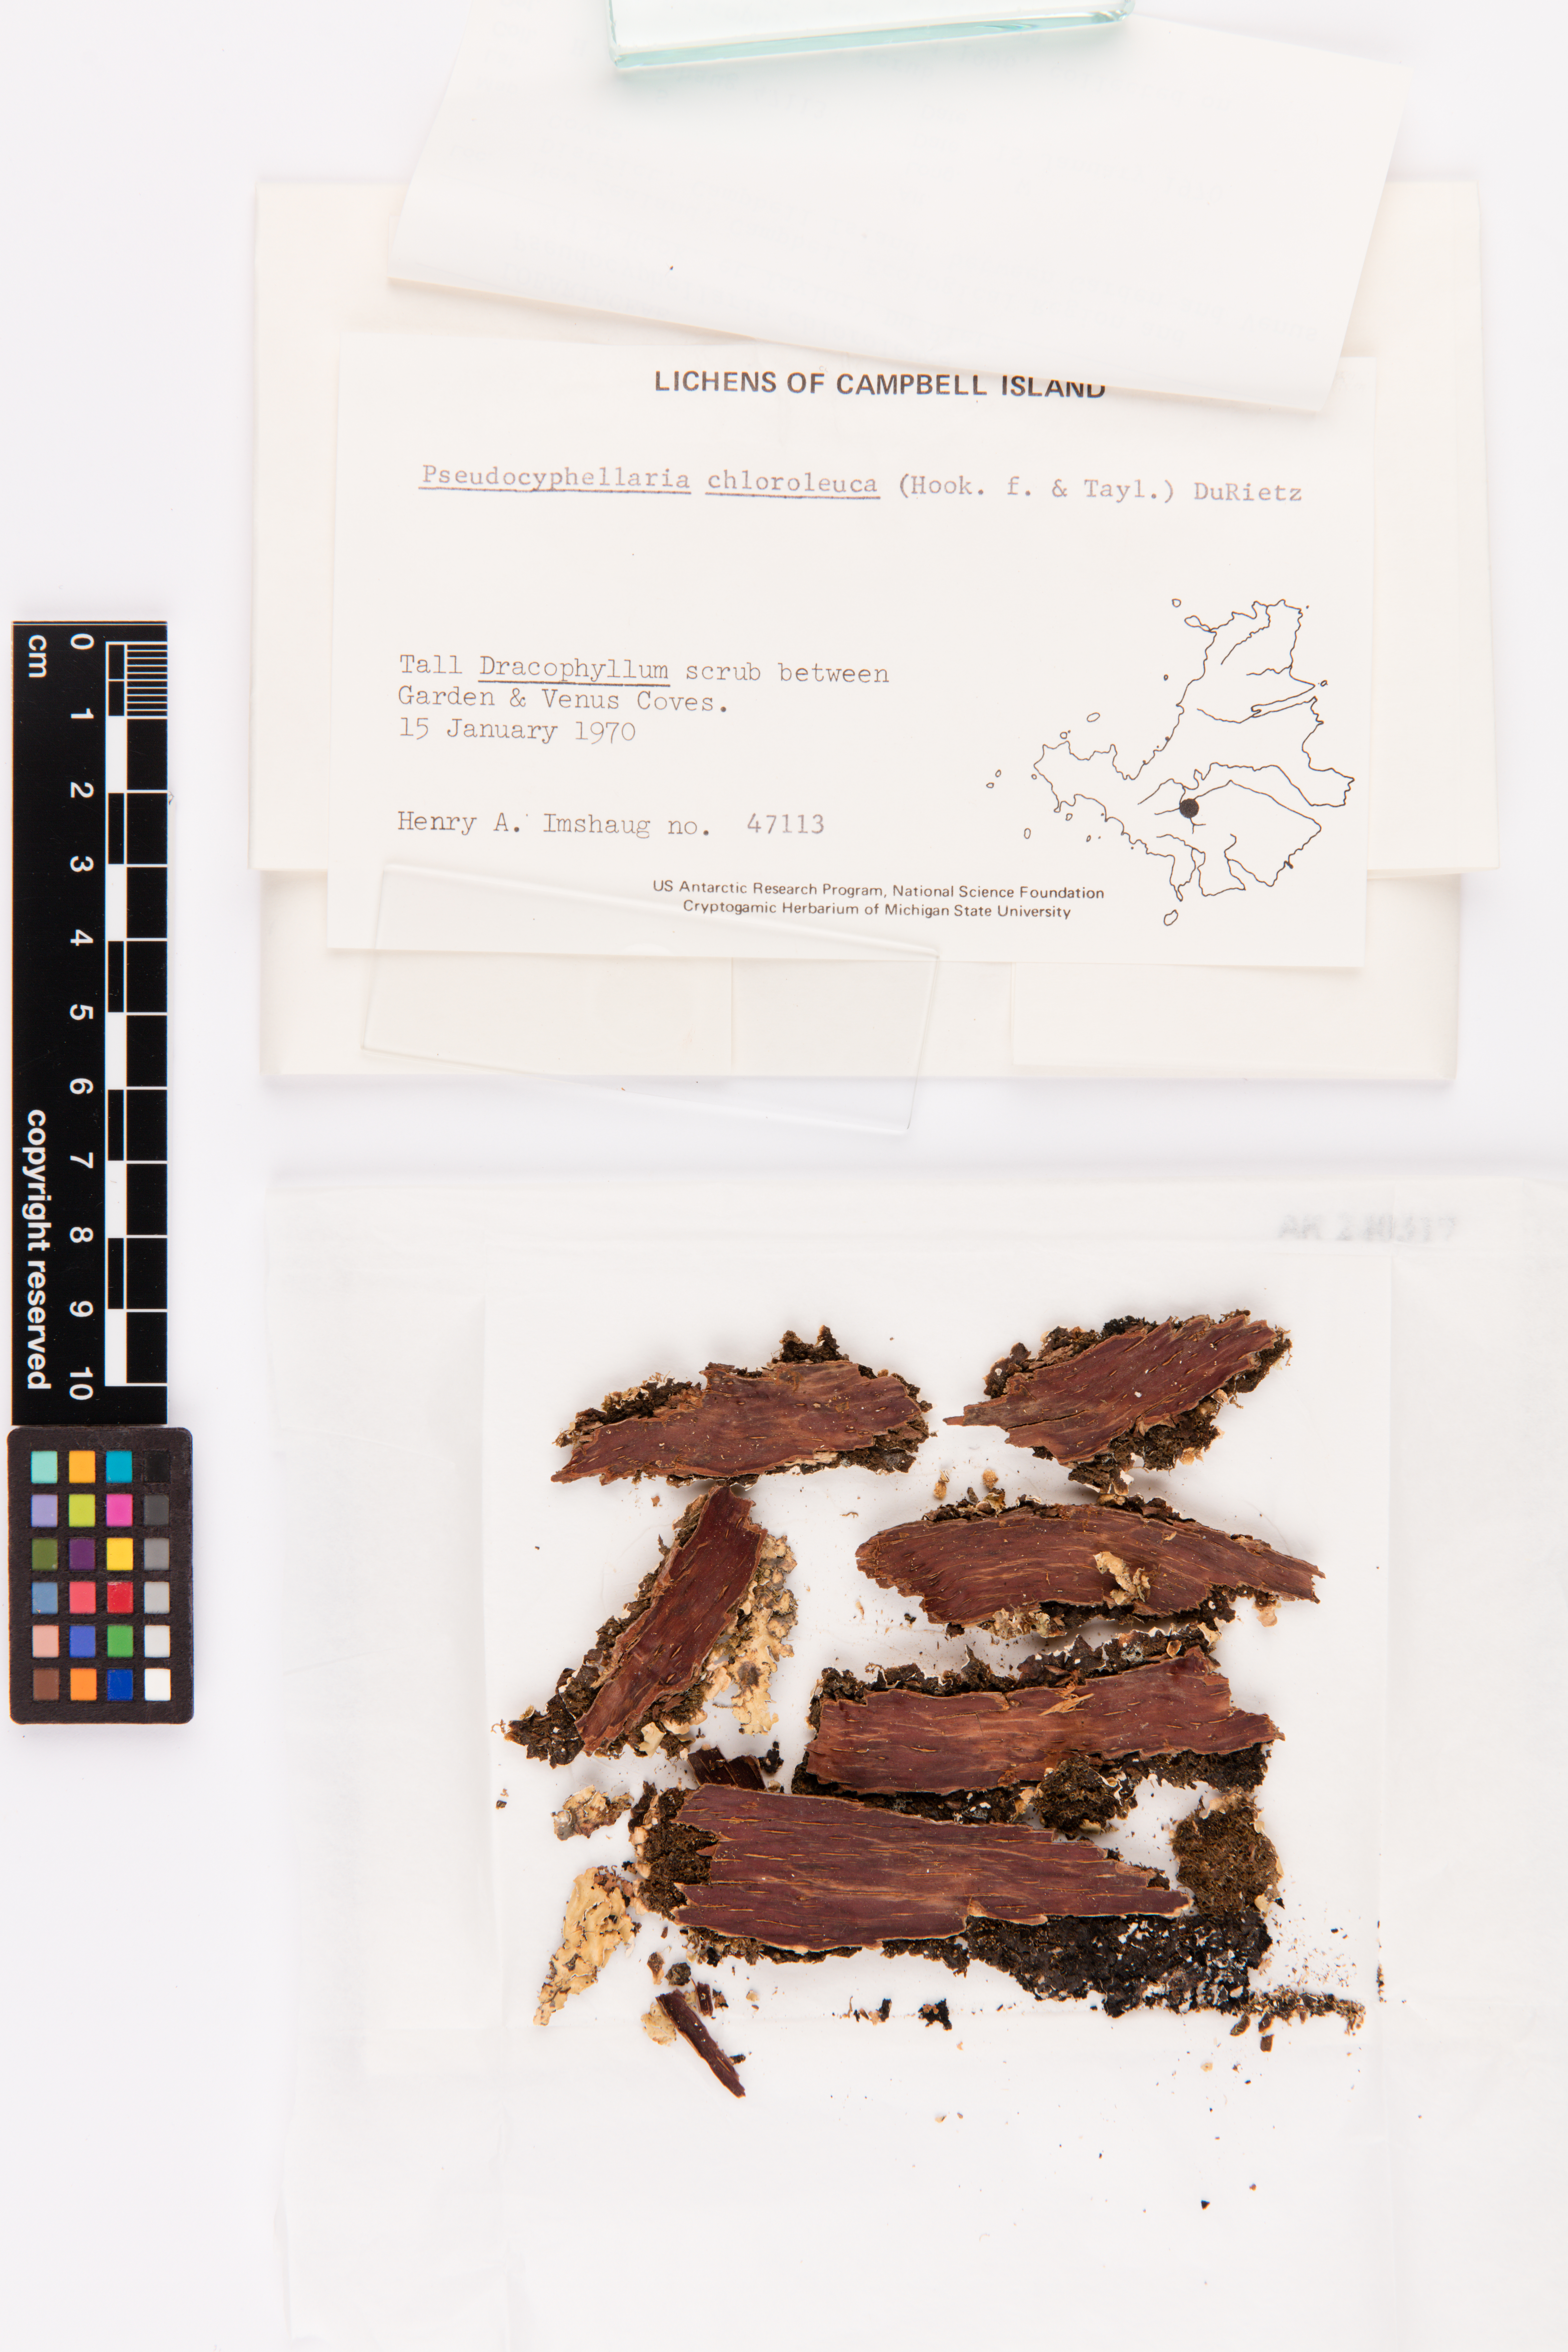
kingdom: Fungi
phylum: Ascomycota
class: Lecanoromycetes
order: Peltigerales
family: Lobariaceae
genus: Pseudocyphellaria
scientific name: Pseudocyphellaria chloroleuca
